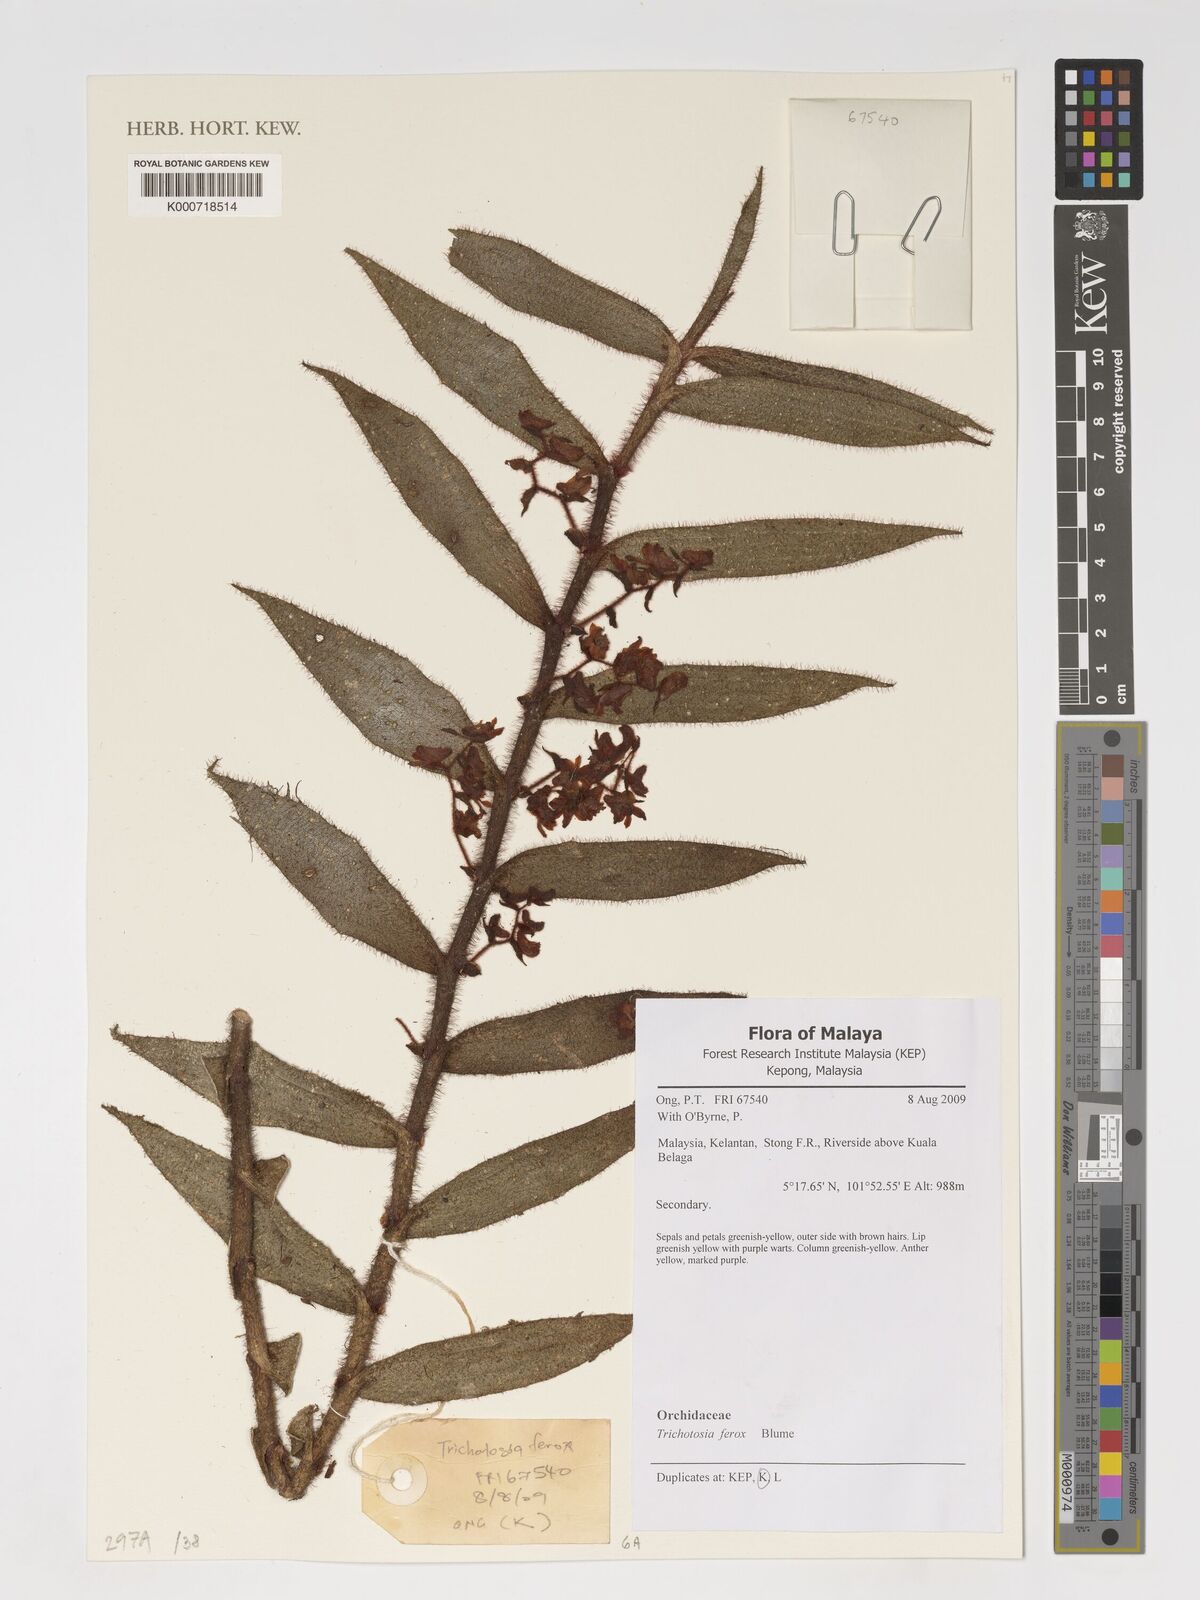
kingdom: Plantae
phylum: Tracheophyta
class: Liliopsida
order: Asparagales
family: Orchidaceae
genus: Trichotosia
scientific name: Trichotosia ferox
